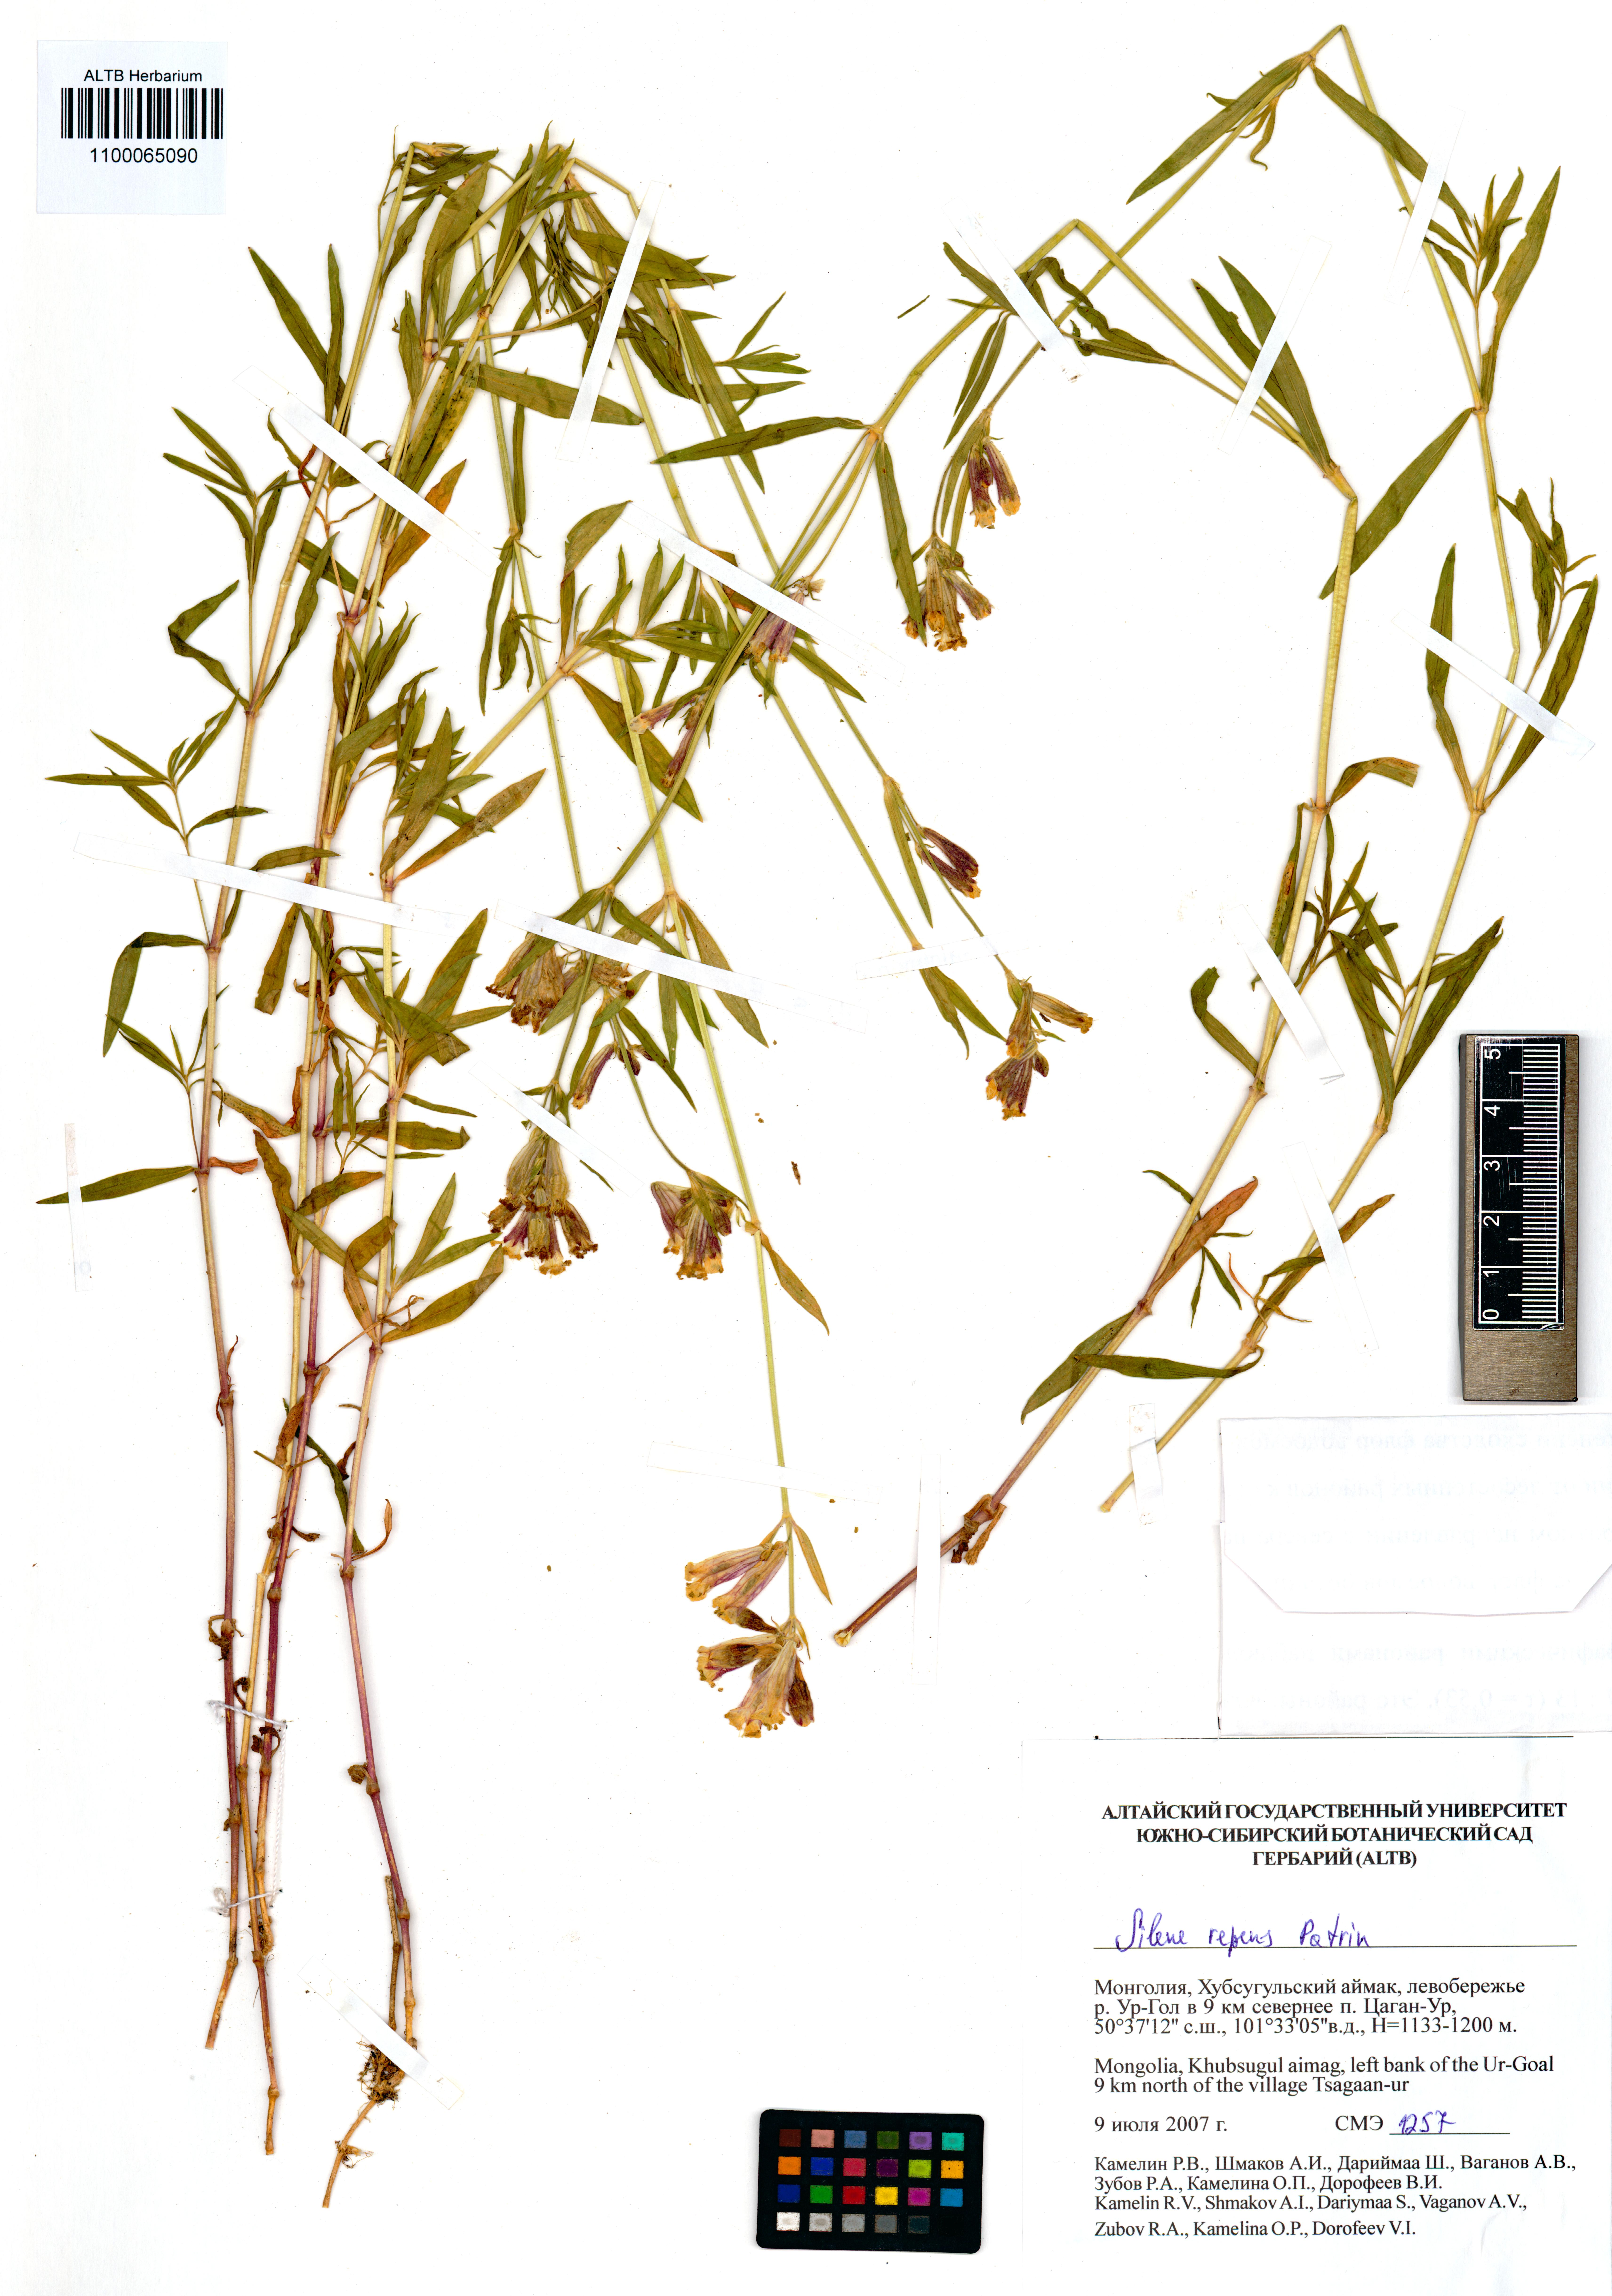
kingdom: Plantae
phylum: Tracheophyta
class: Magnoliopsida
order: Caryophyllales
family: Caryophyllaceae
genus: Silene
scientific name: Silene repens
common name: Pink campion
